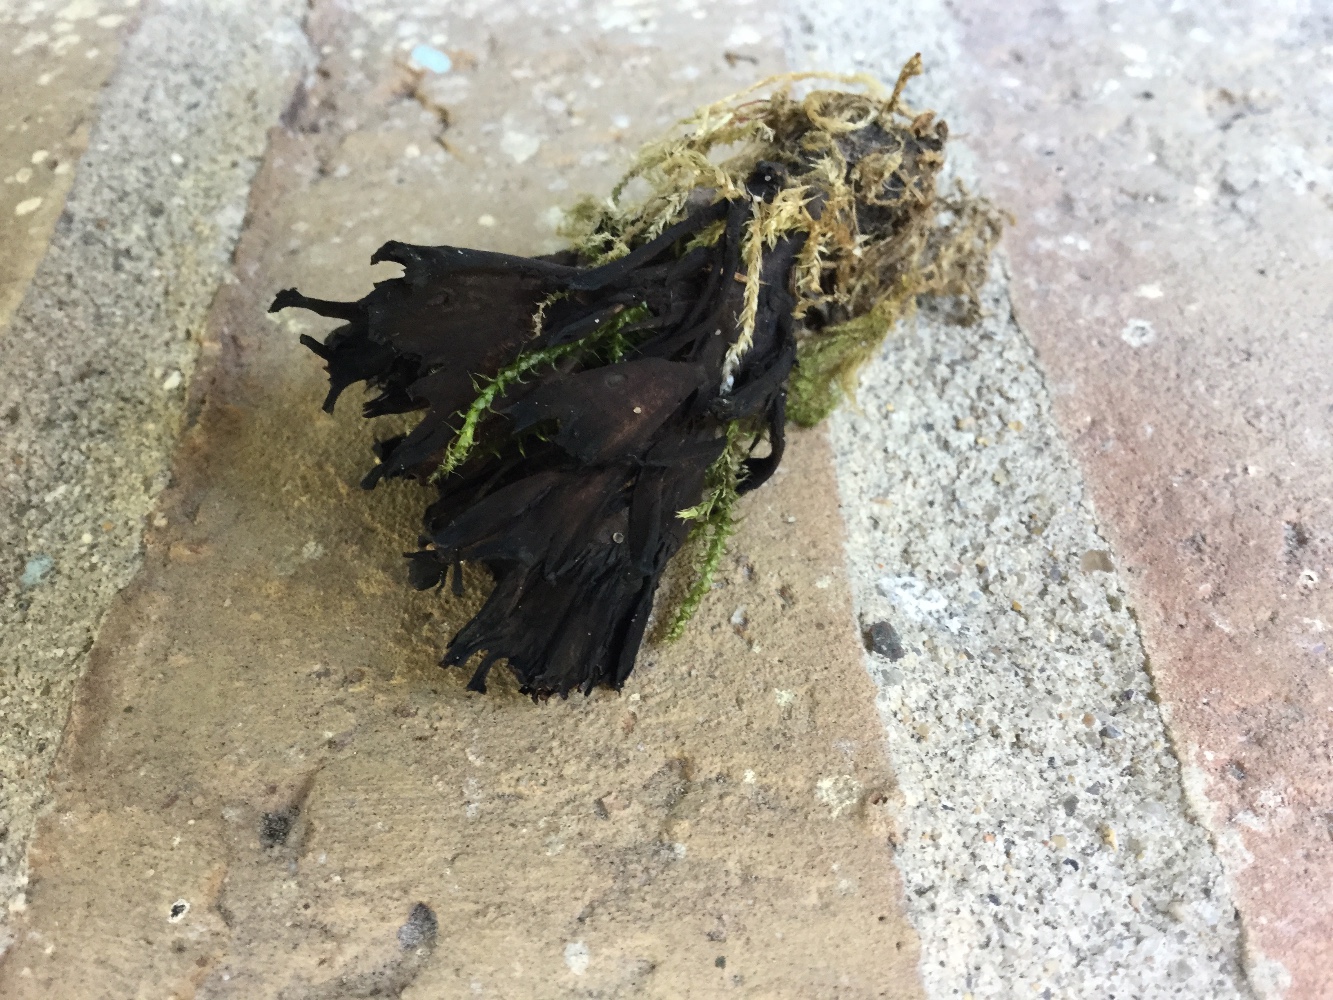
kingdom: Fungi
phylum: Basidiomycota
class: Agaricomycetes
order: Thelephorales
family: Thelephoraceae
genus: Thelephora
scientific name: Thelephora palmata
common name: grenet frynsesvamp
